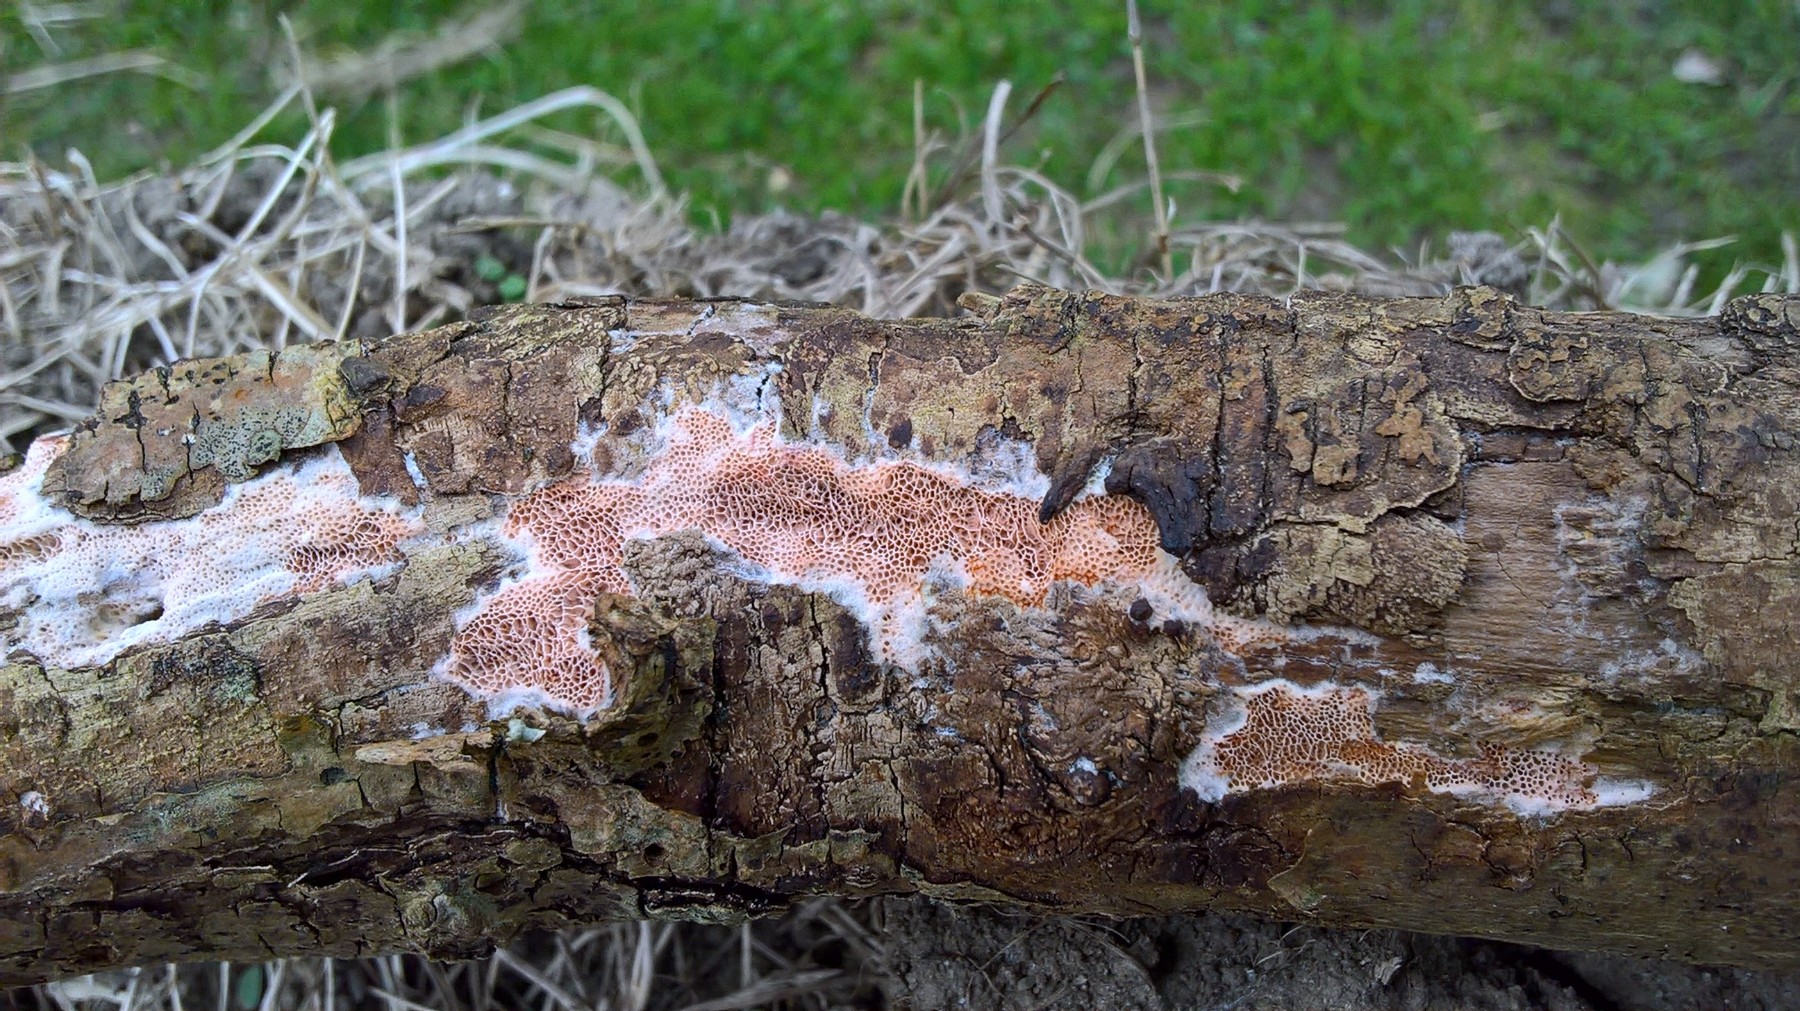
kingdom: Fungi
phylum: Basidiomycota
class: Agaricomycetes
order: Polyporales
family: Irpicaceae
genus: Ceriporia
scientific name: Ceriporia
